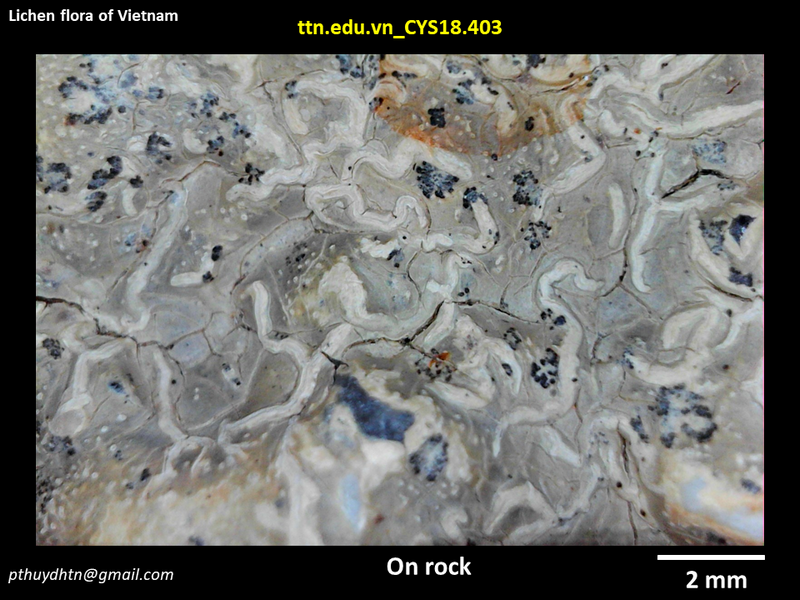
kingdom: Fungi
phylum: Ascomycota
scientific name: Ascomycota
